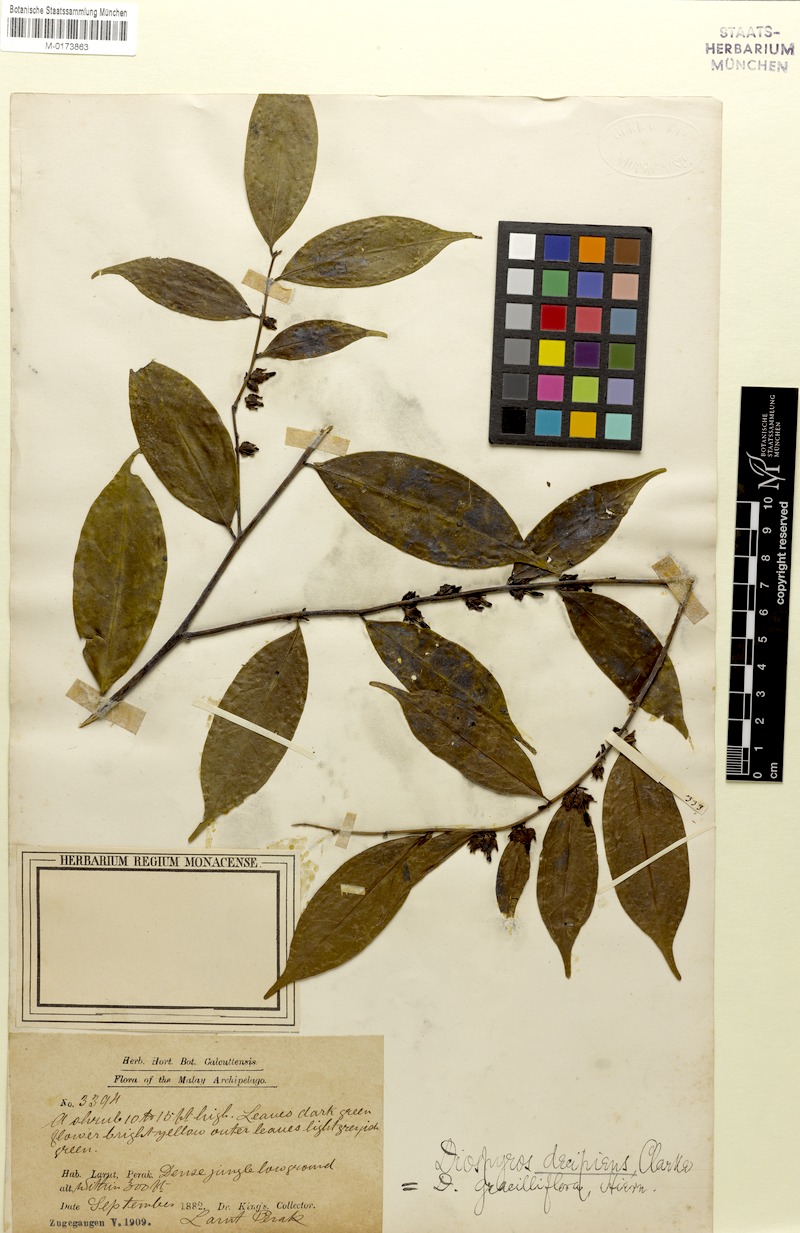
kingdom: Plantae
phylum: Tracheophyta
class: Magnoliopsida
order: Ericales
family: Ebenaceae
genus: Diospyros
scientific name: Diospyros sumatrana
